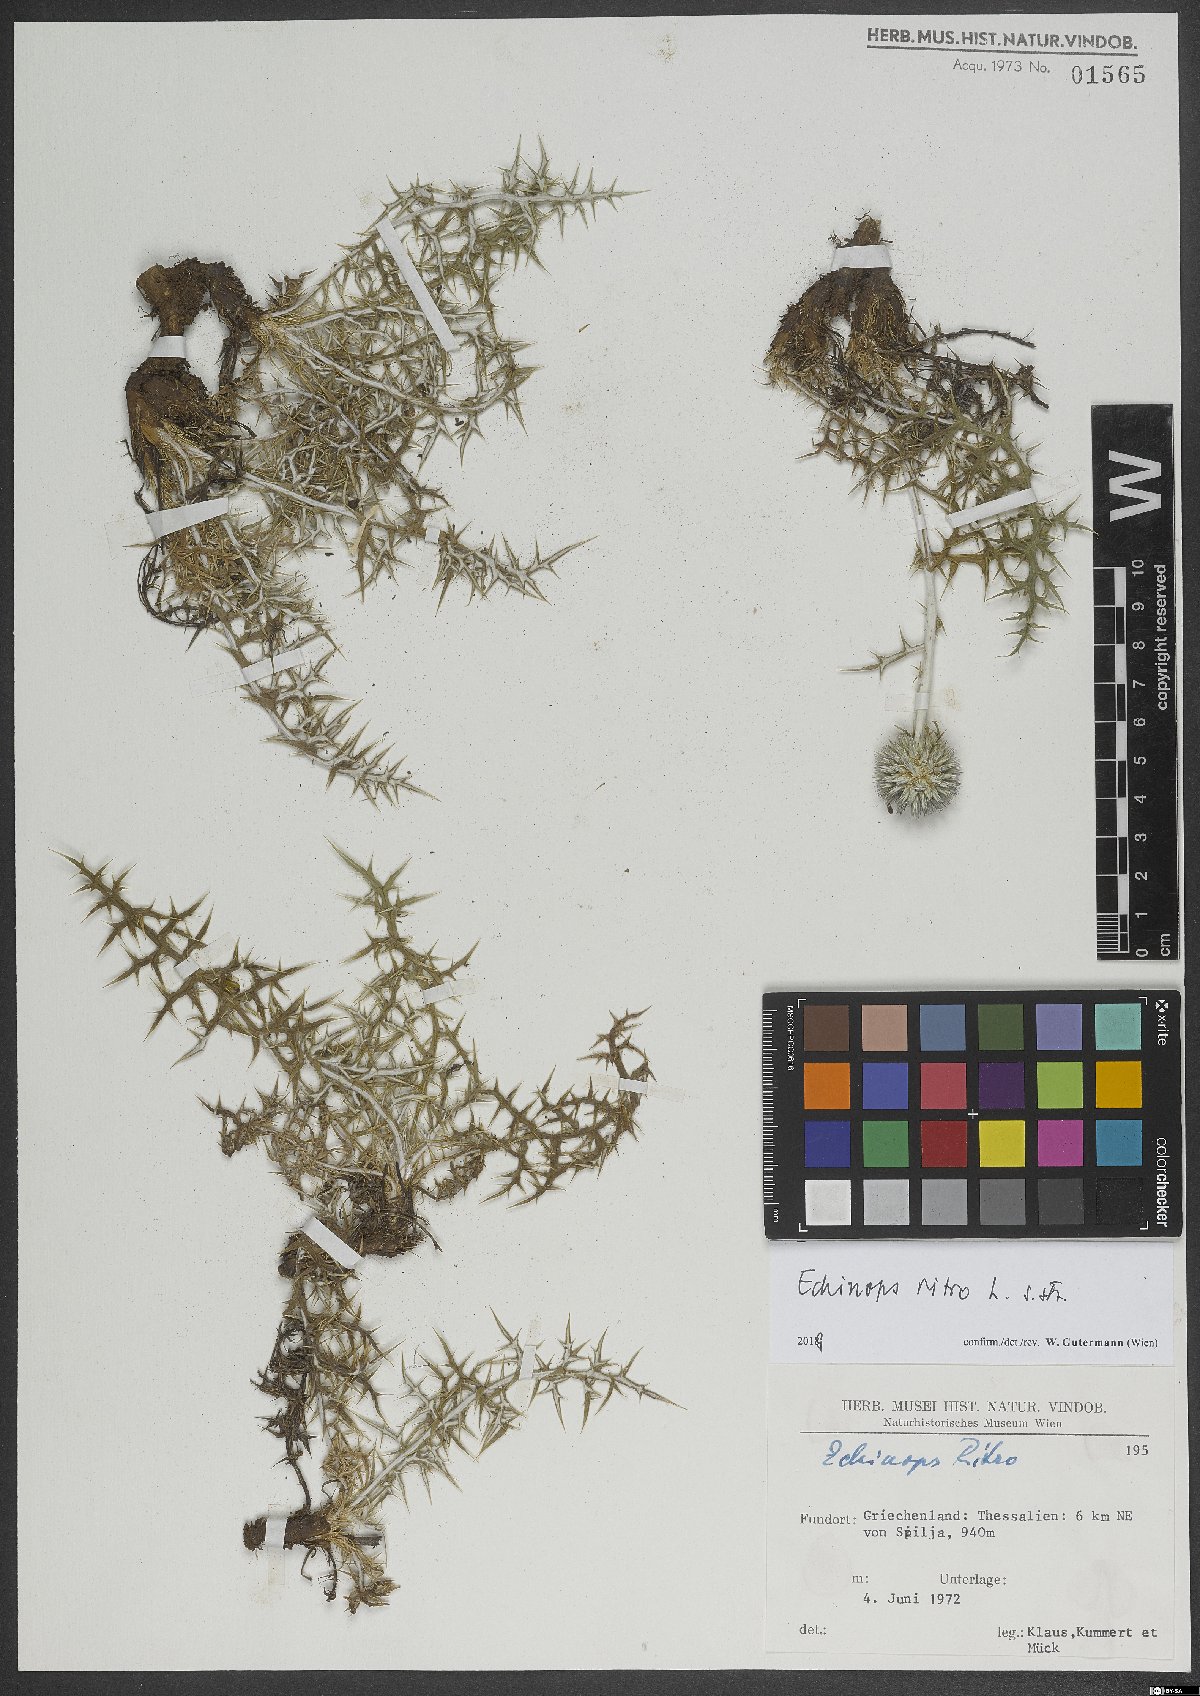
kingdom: Plantae
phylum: Tracheophyta
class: Magnoliopsida
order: Asterales
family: Asteraceae
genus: Echinops
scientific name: Echinops ritro
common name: Globe thistle
